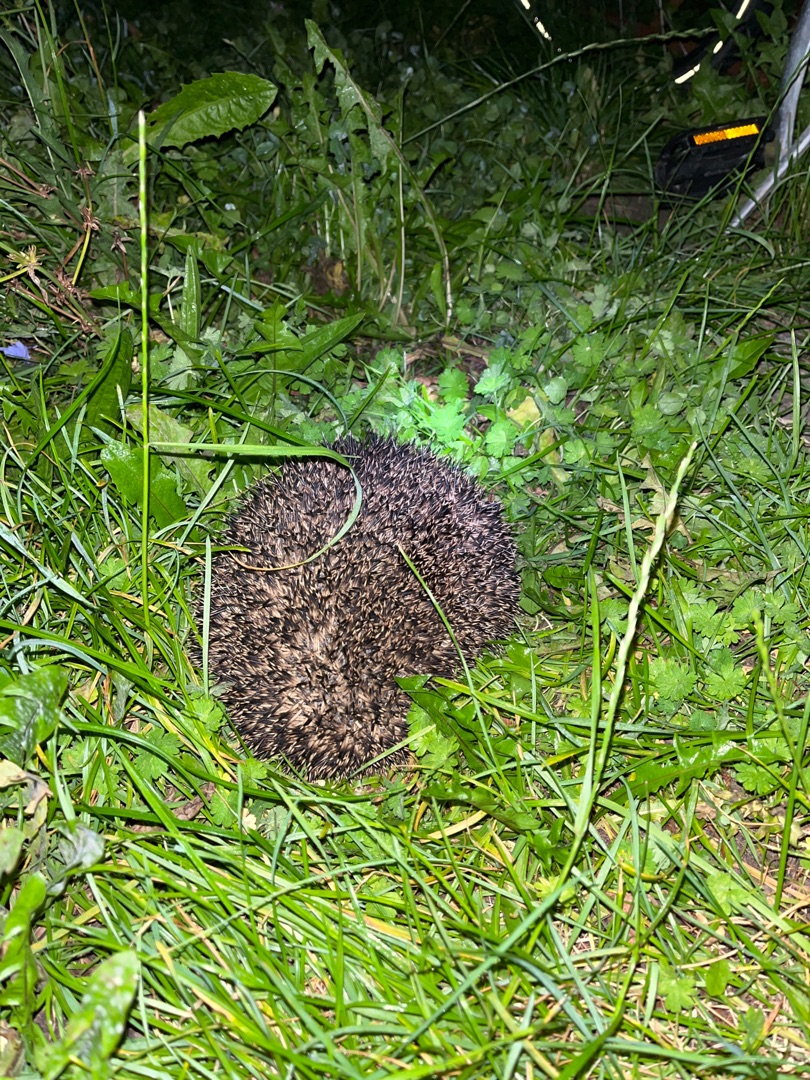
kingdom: Animalia
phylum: Chordata
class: Mammalia
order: Erinaceomorpha
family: Erinaceidae
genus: Erinaceus
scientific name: Erinaceus europaeus
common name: Pindsvin
